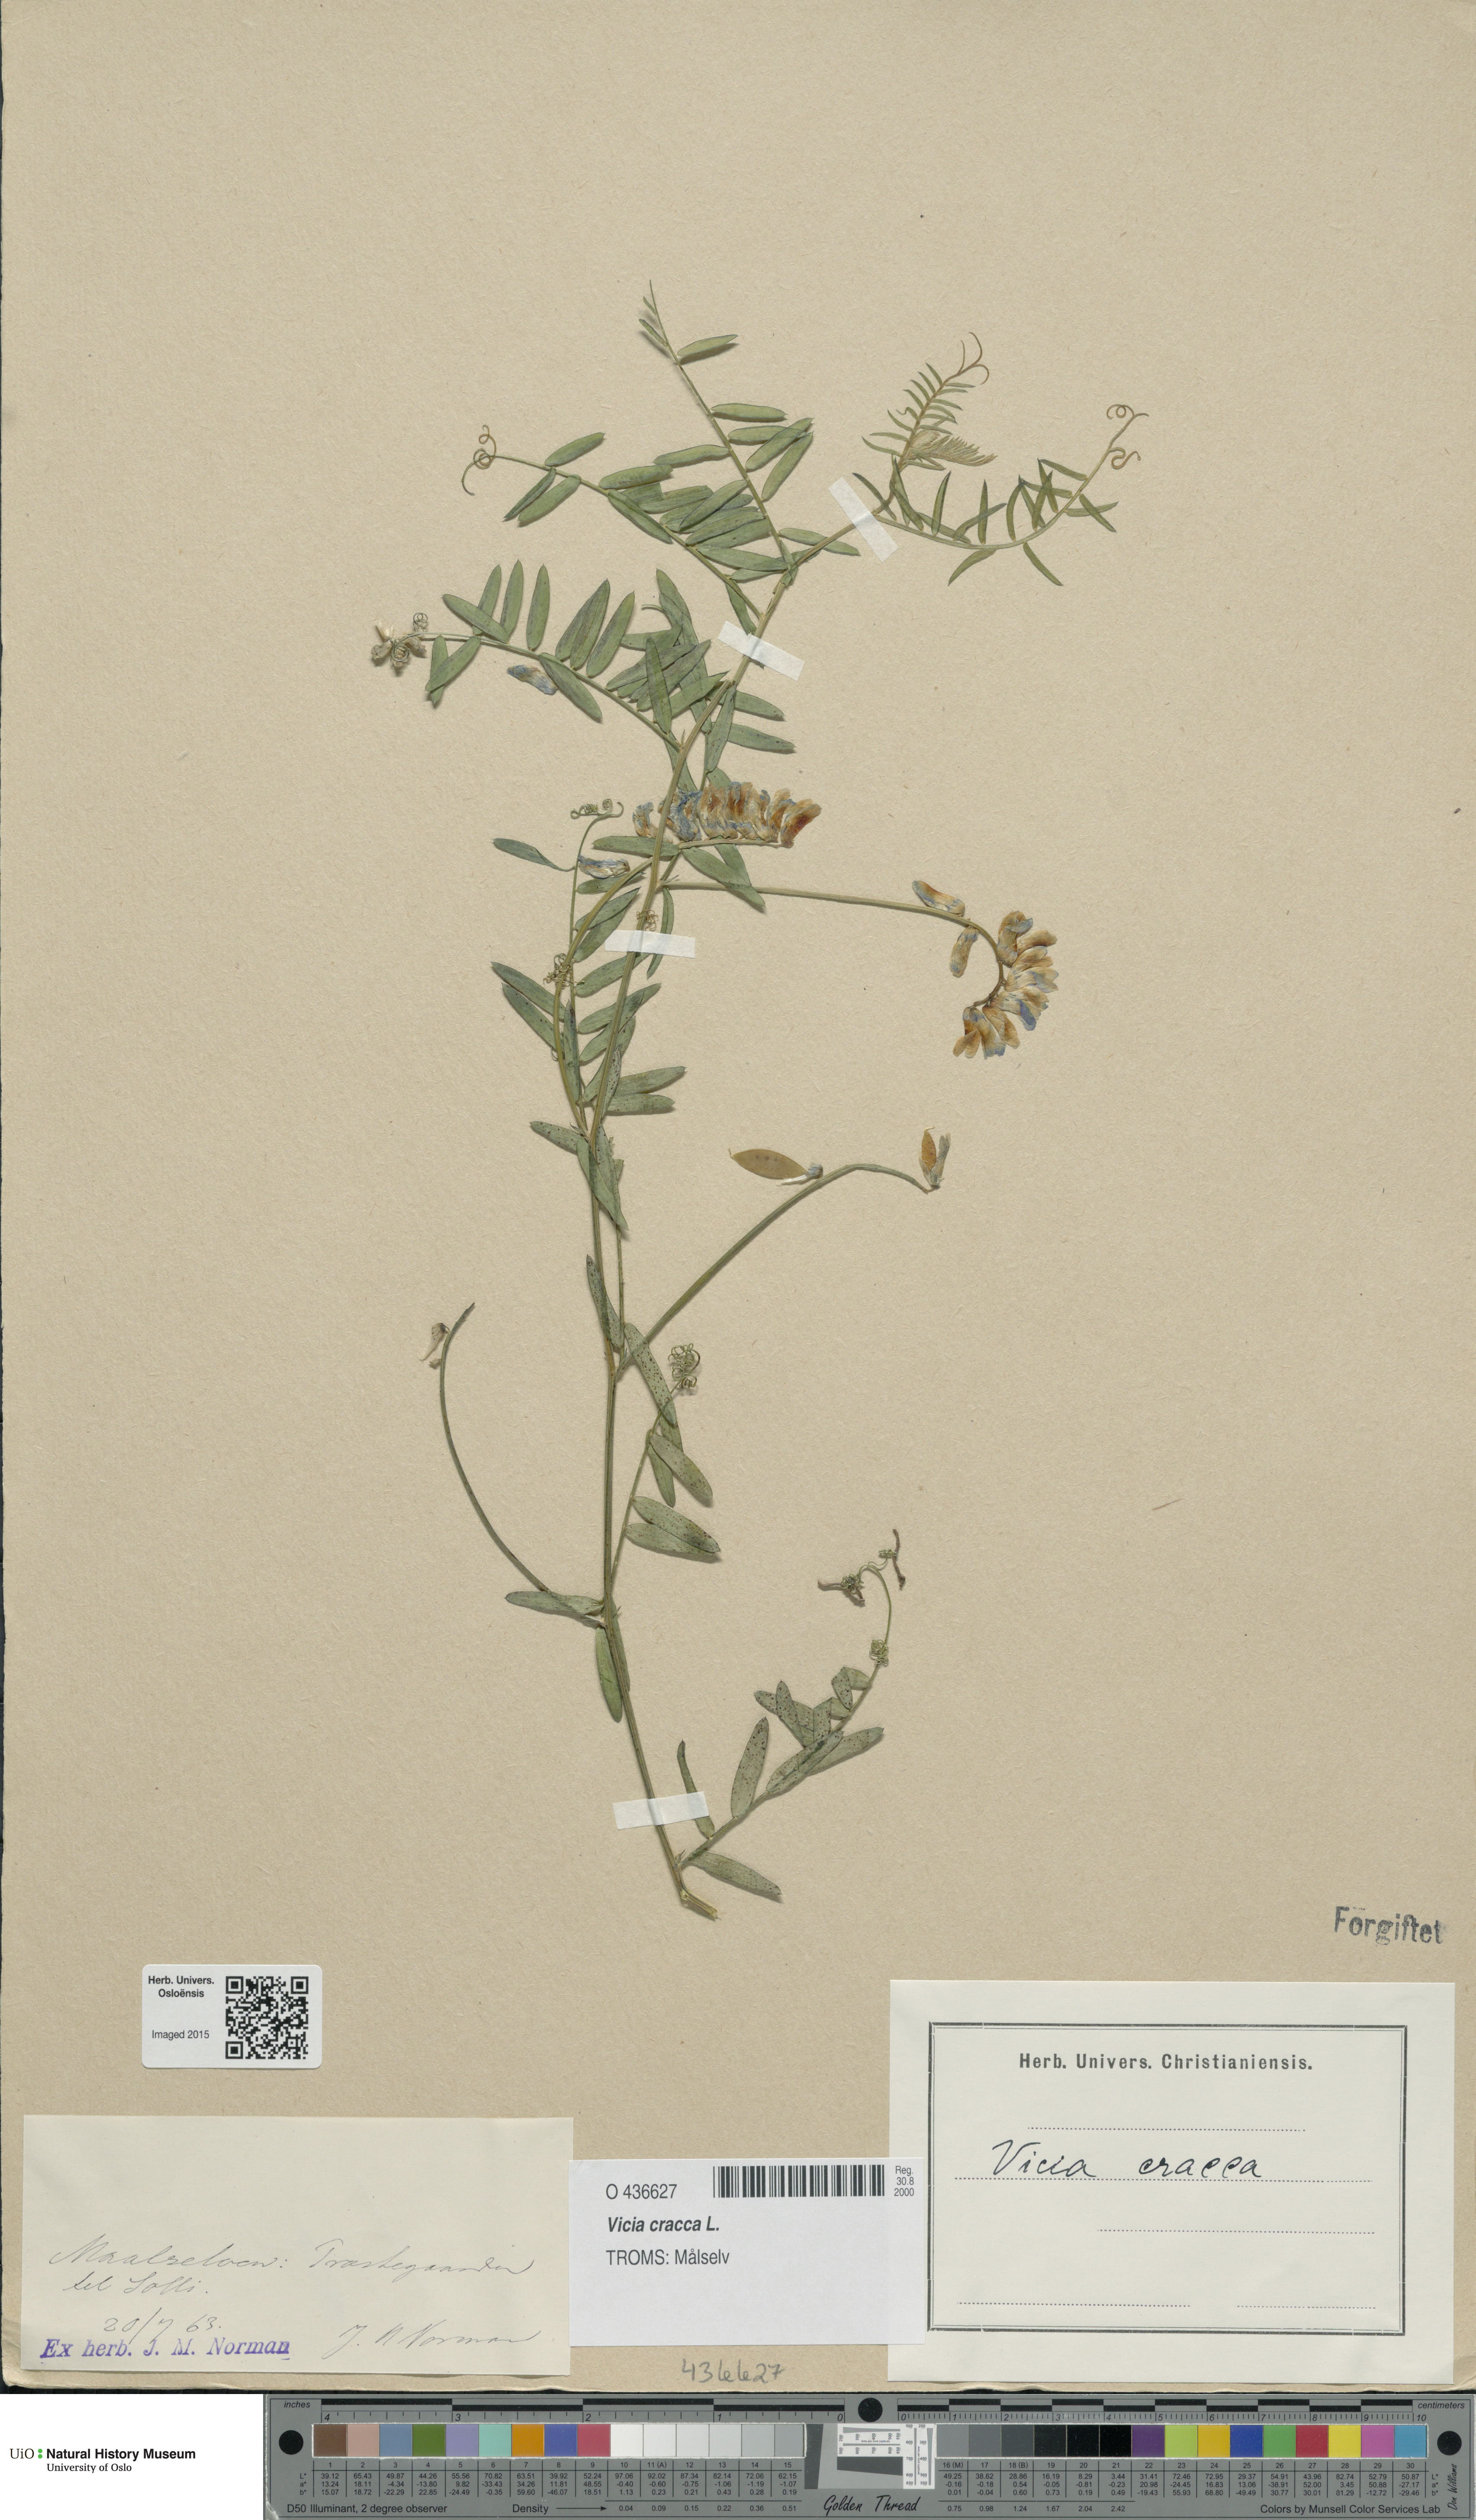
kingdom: Plantae
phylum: Tracheophyta
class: Magnoliopsida
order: Fabales
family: Fabaceae
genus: Vicia
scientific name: Vicia cracca
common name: Bird vetch
